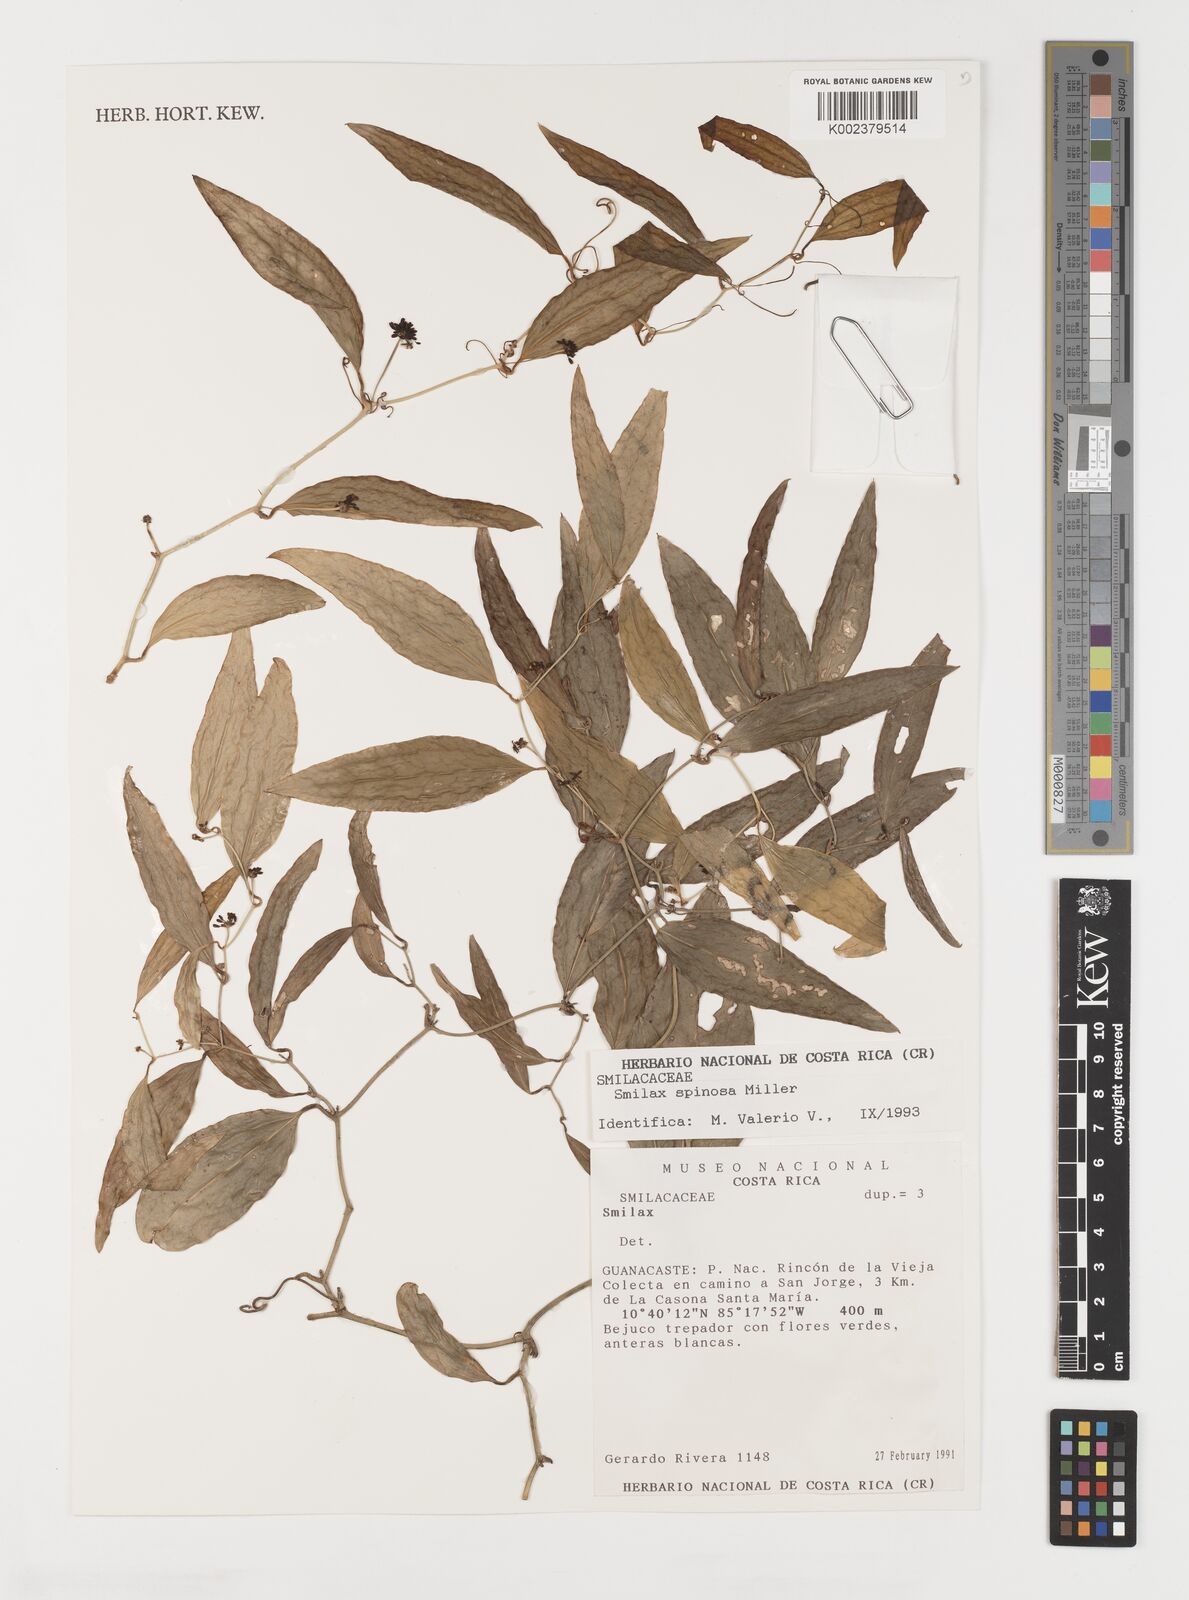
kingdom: Plantae
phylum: Tracheophyta
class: Liliopsida
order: Liliales
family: Smilacaceae
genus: Smilax
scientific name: Smilax spinosa
